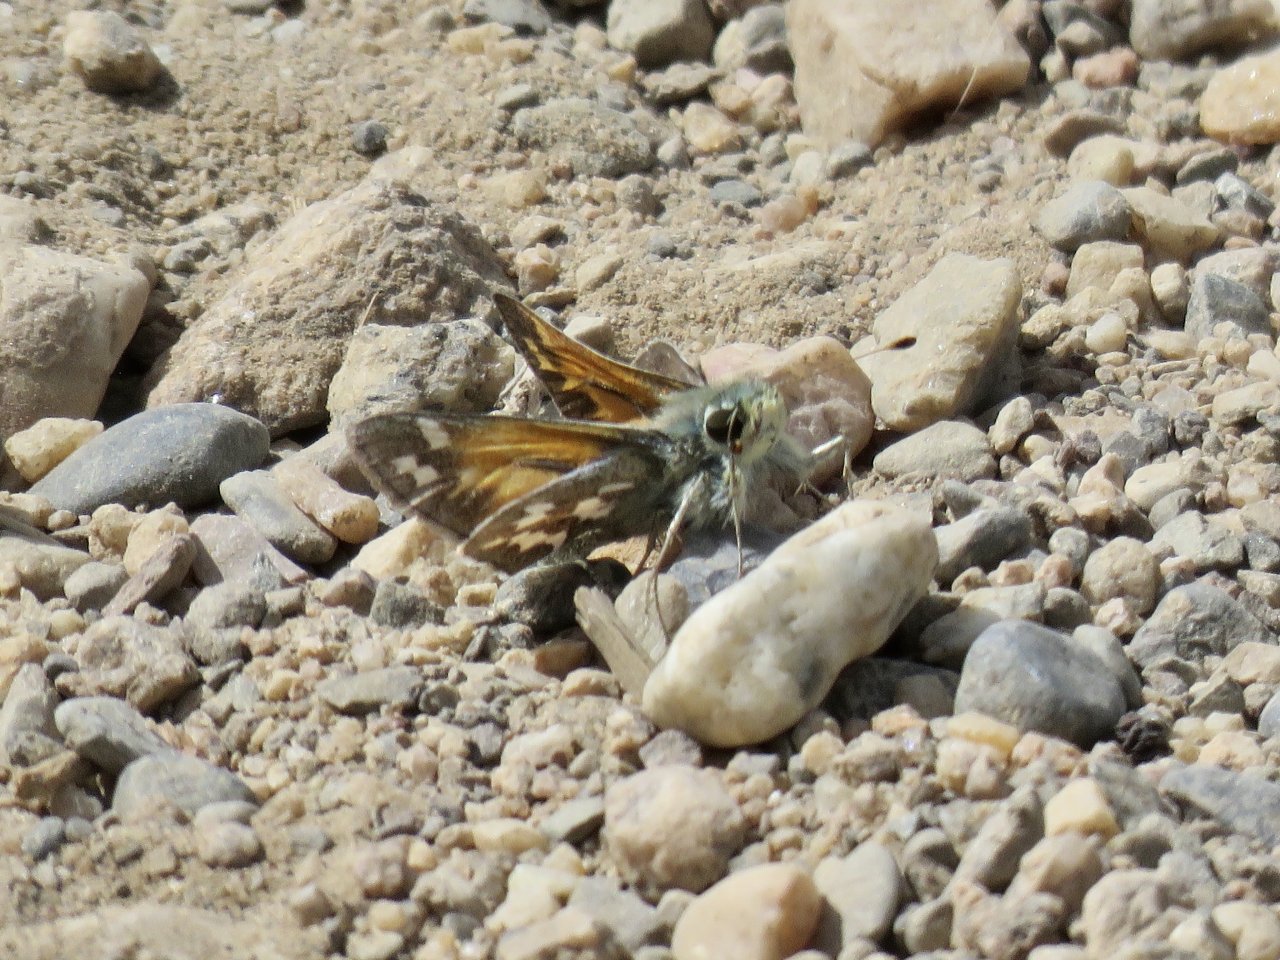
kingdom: Animalia
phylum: Arthropoda
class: Insecta
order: Lepidoptera
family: Hesperiidae
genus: Hesperia
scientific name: Hesperia juba
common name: Juba Skipper
